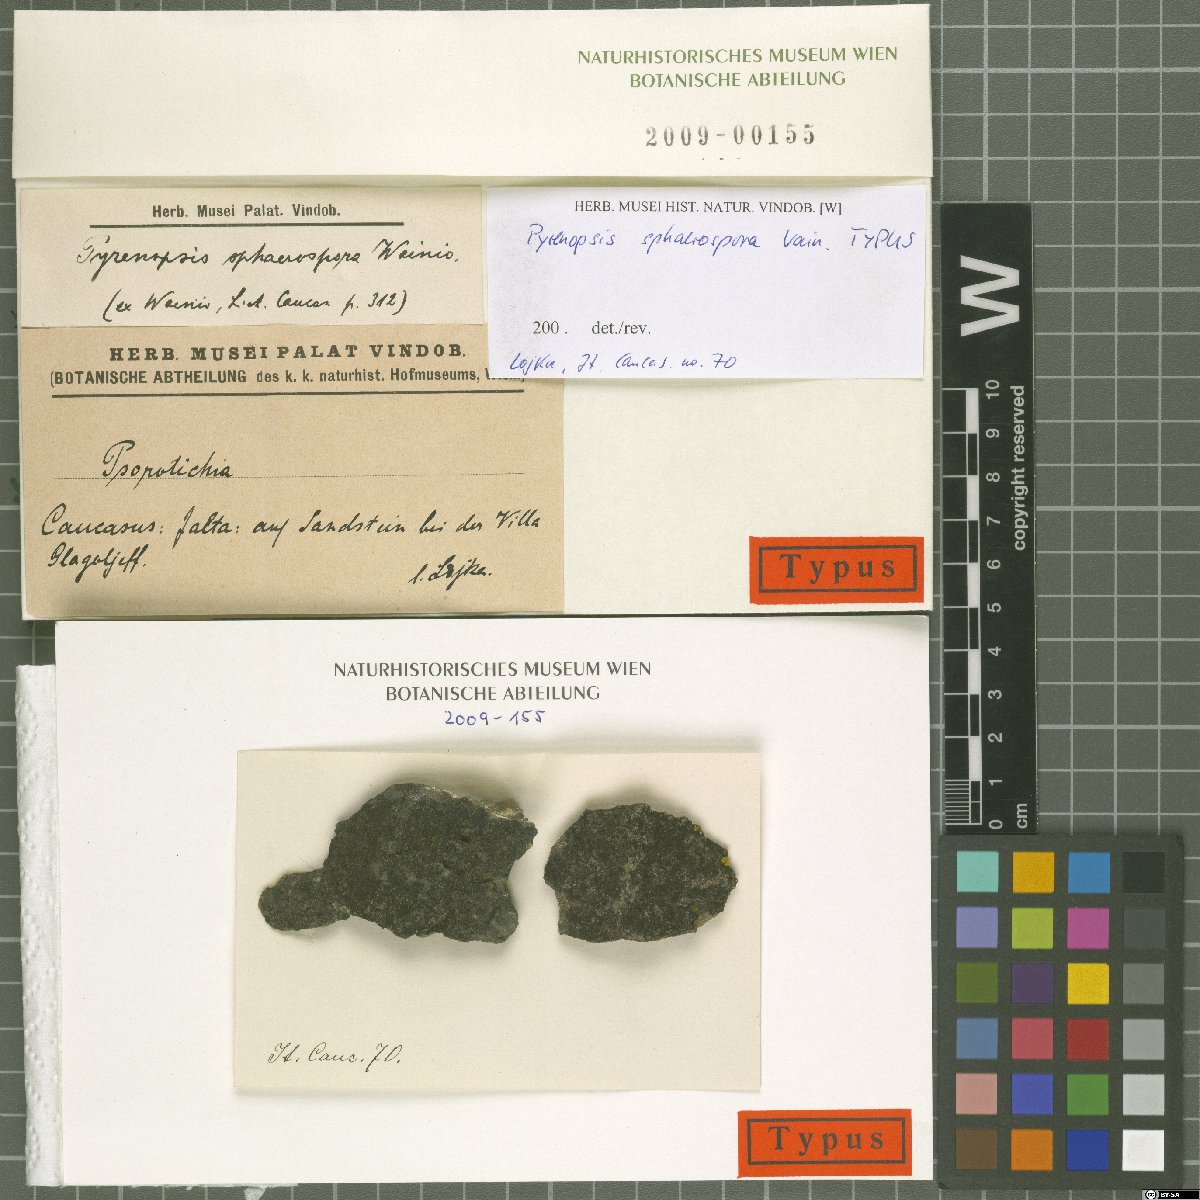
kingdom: Fungi
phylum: Ascomycota
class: Lichinomycetes
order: Lichinales
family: Lichinaceae
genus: Pyrenopsis
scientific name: Pyrenopsis
